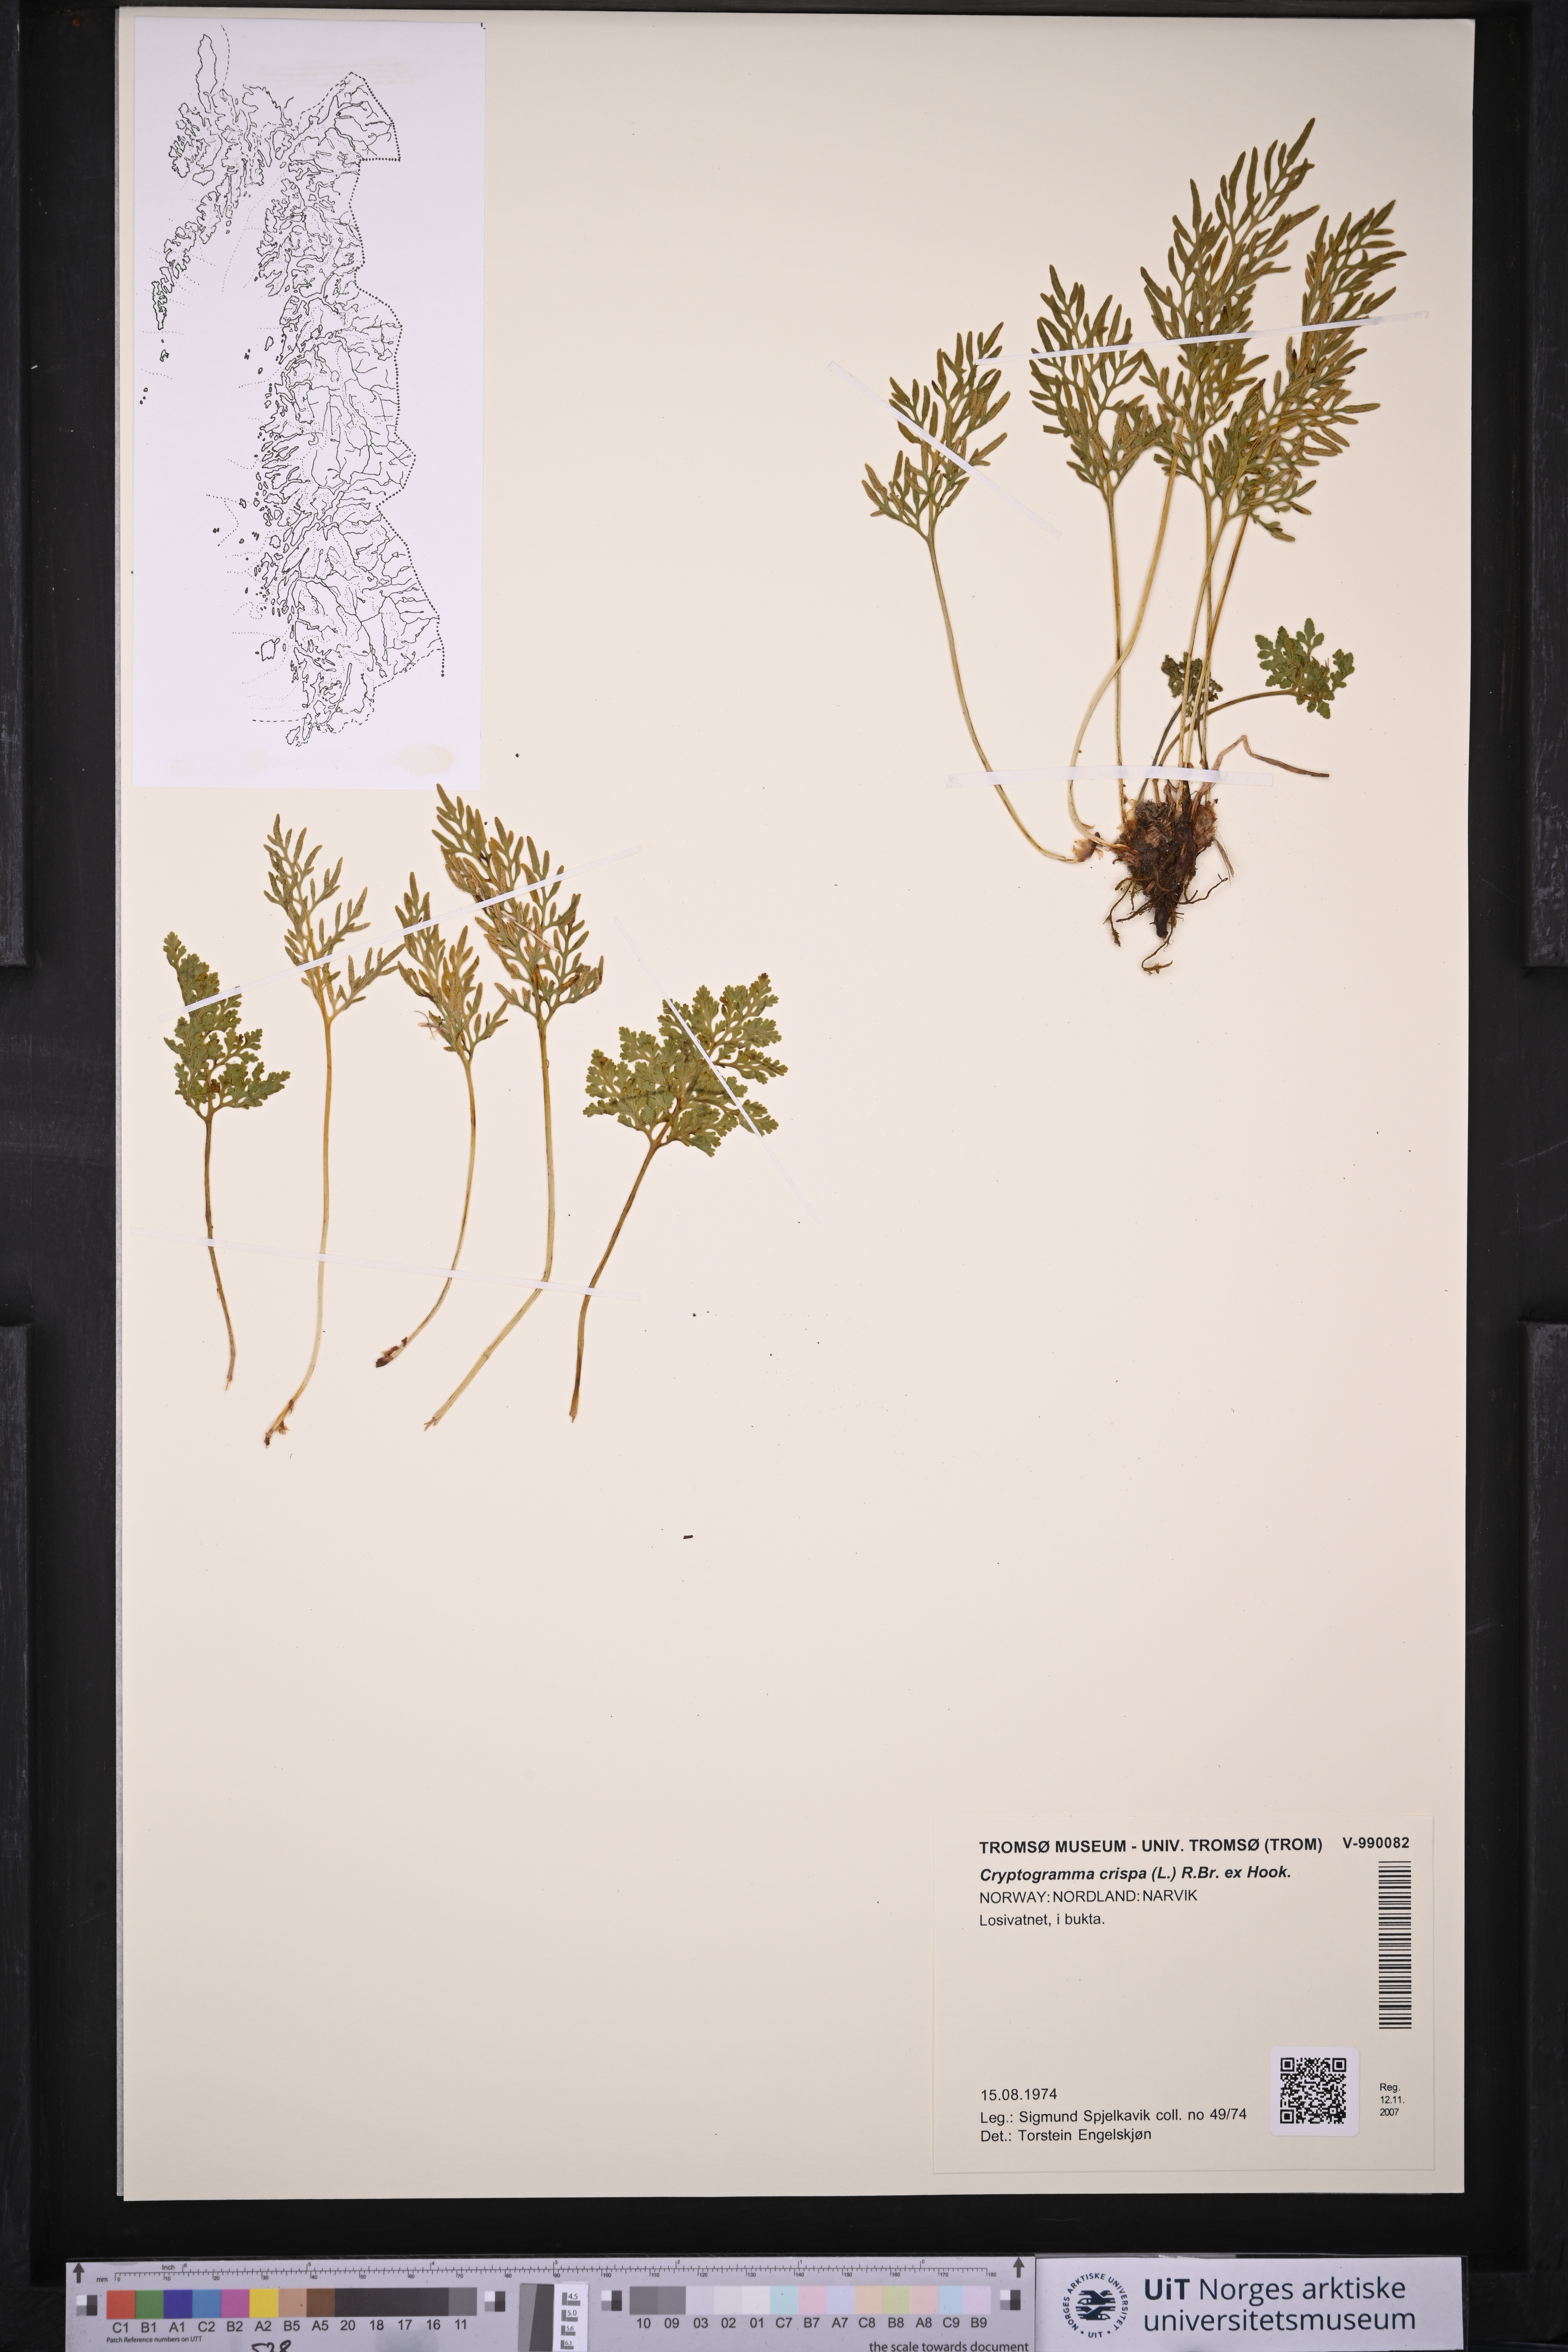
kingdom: Plantae
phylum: Tracheophyta
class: Polypodiopsida
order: Polypodiales
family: Pteridaceae
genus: Cryptogramma
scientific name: Cryptogramma crispa
